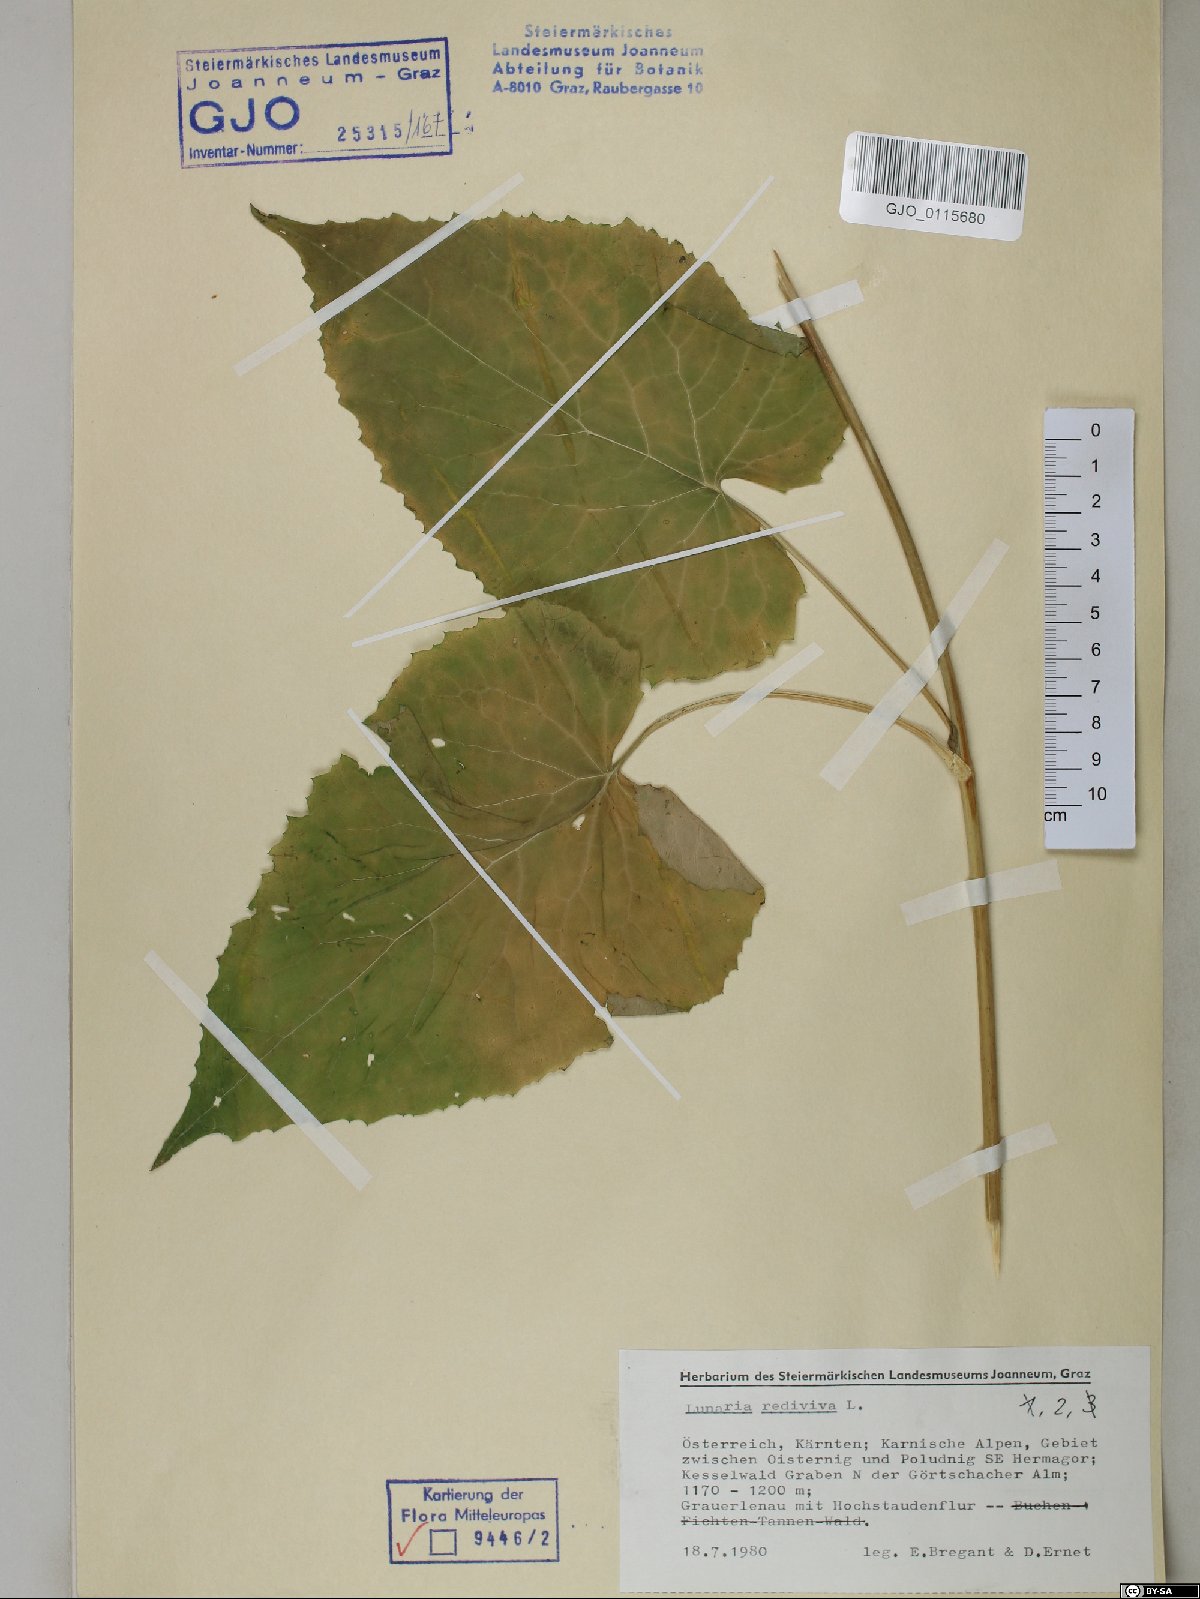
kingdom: Plantae
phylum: Tracheophyta
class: Magnoliopsida
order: Brassicales
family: Brassicaceae
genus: Lunaria
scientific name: Lunaria rediviva
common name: Perennial honesty
